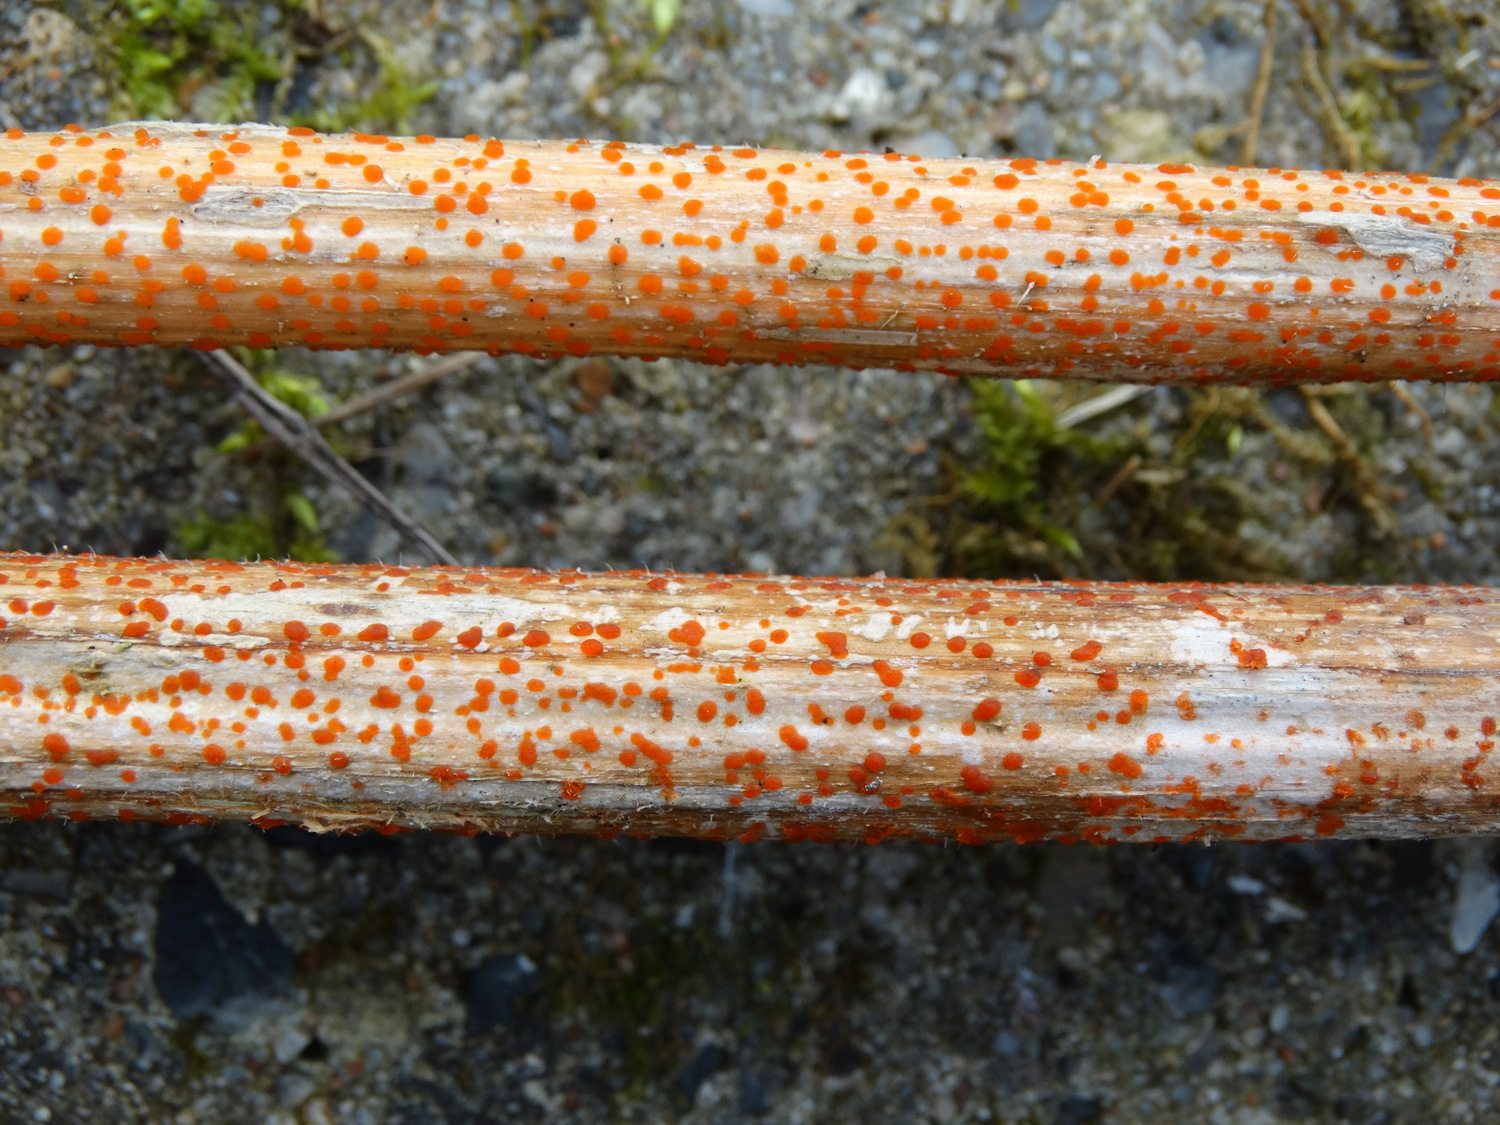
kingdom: Fungi
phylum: Ascomycota
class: Leotiomycetes
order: Helotiales
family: Calloriaceae
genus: Calloria
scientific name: Calloria urticae
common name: nælde-orangeskive
